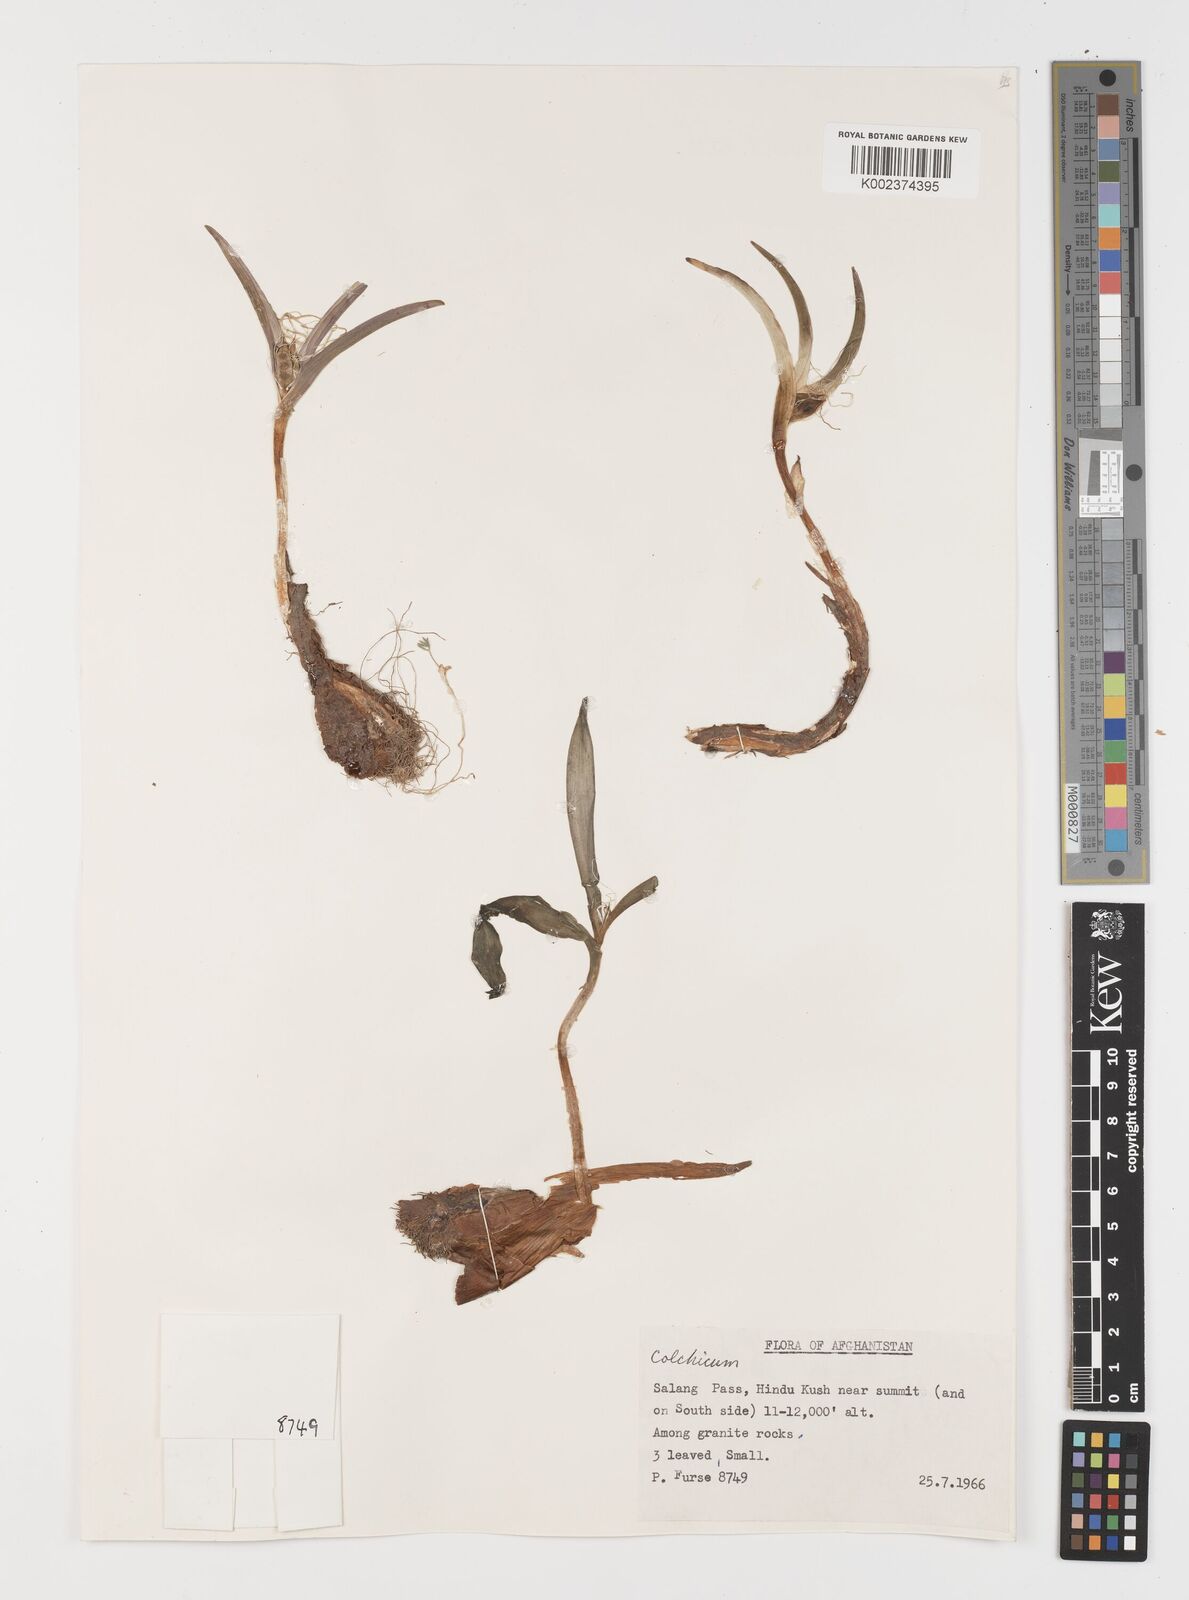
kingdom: Plantae
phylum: Tracheophyta
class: Liliopsida
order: Liliales
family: Colchicaceae
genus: Colchicum
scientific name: Colchicum
